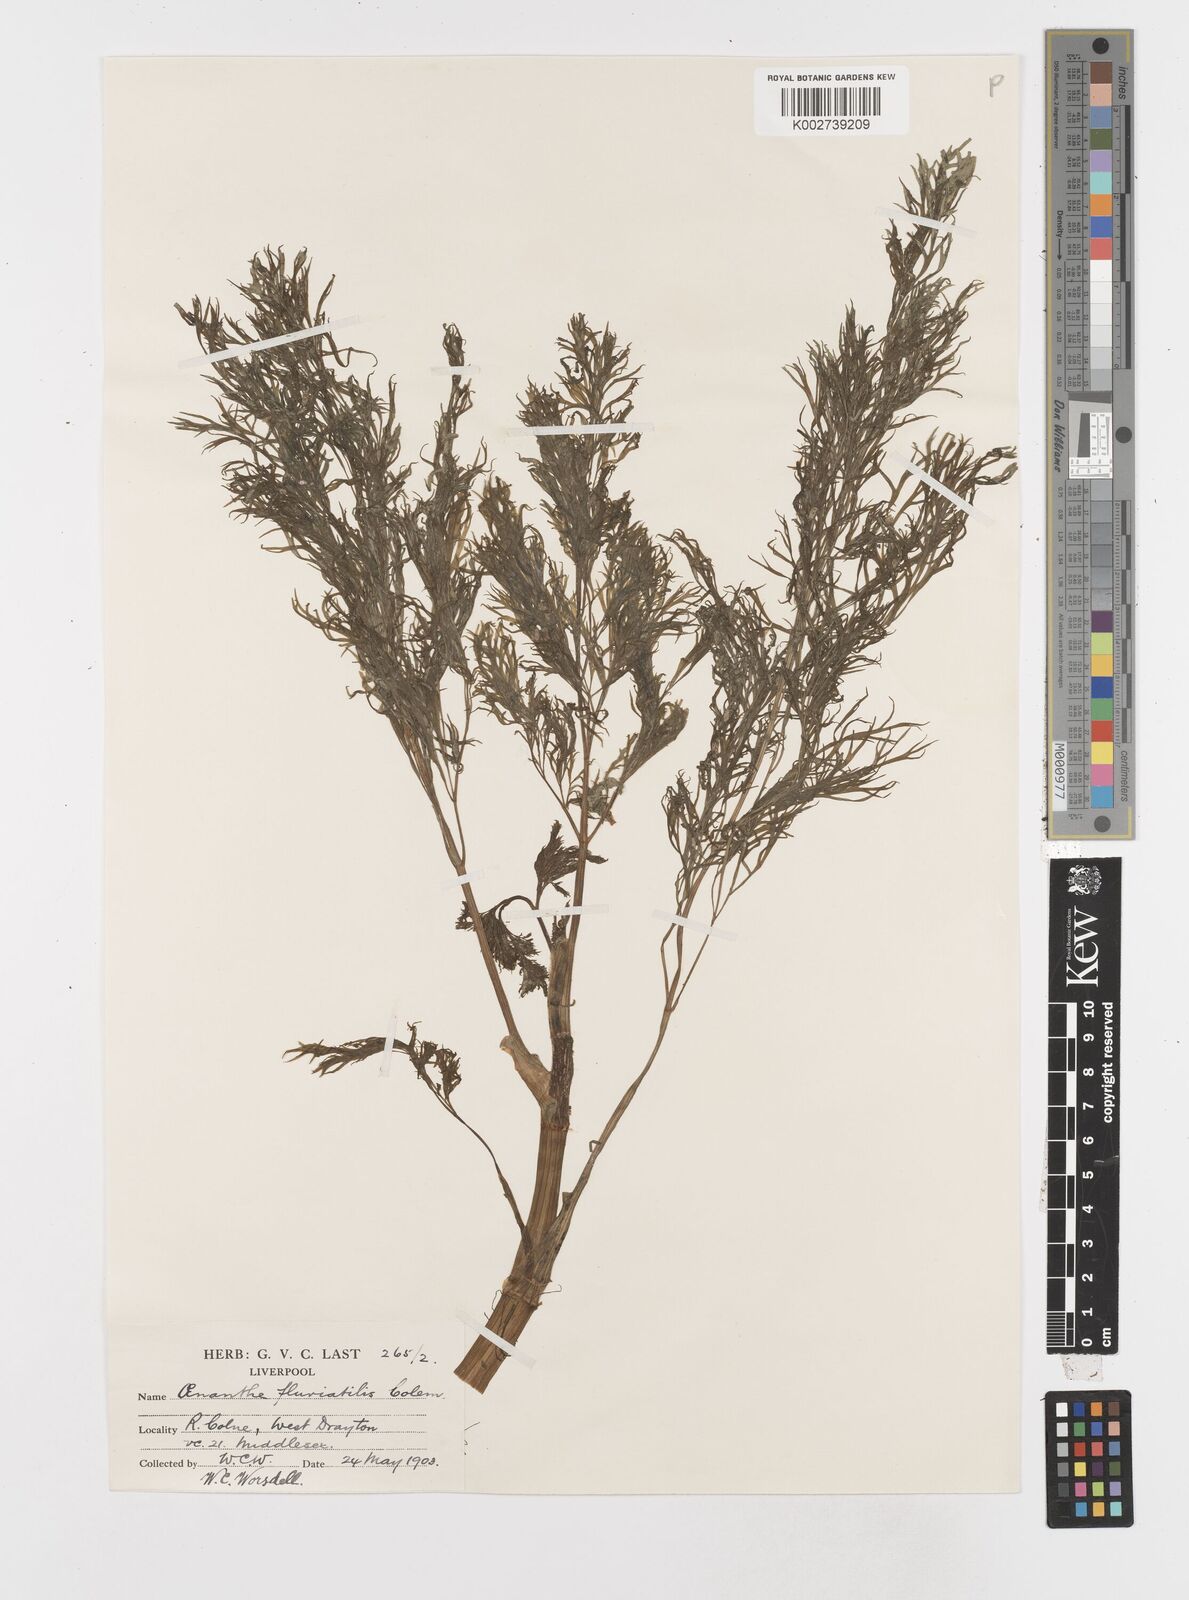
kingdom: Plantae
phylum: Tracheophyta
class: Magnoliopsida
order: Apiales
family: Apiaceae
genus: Oenanthe
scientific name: Oenanthe fluviatilis
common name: River water-dropwort
